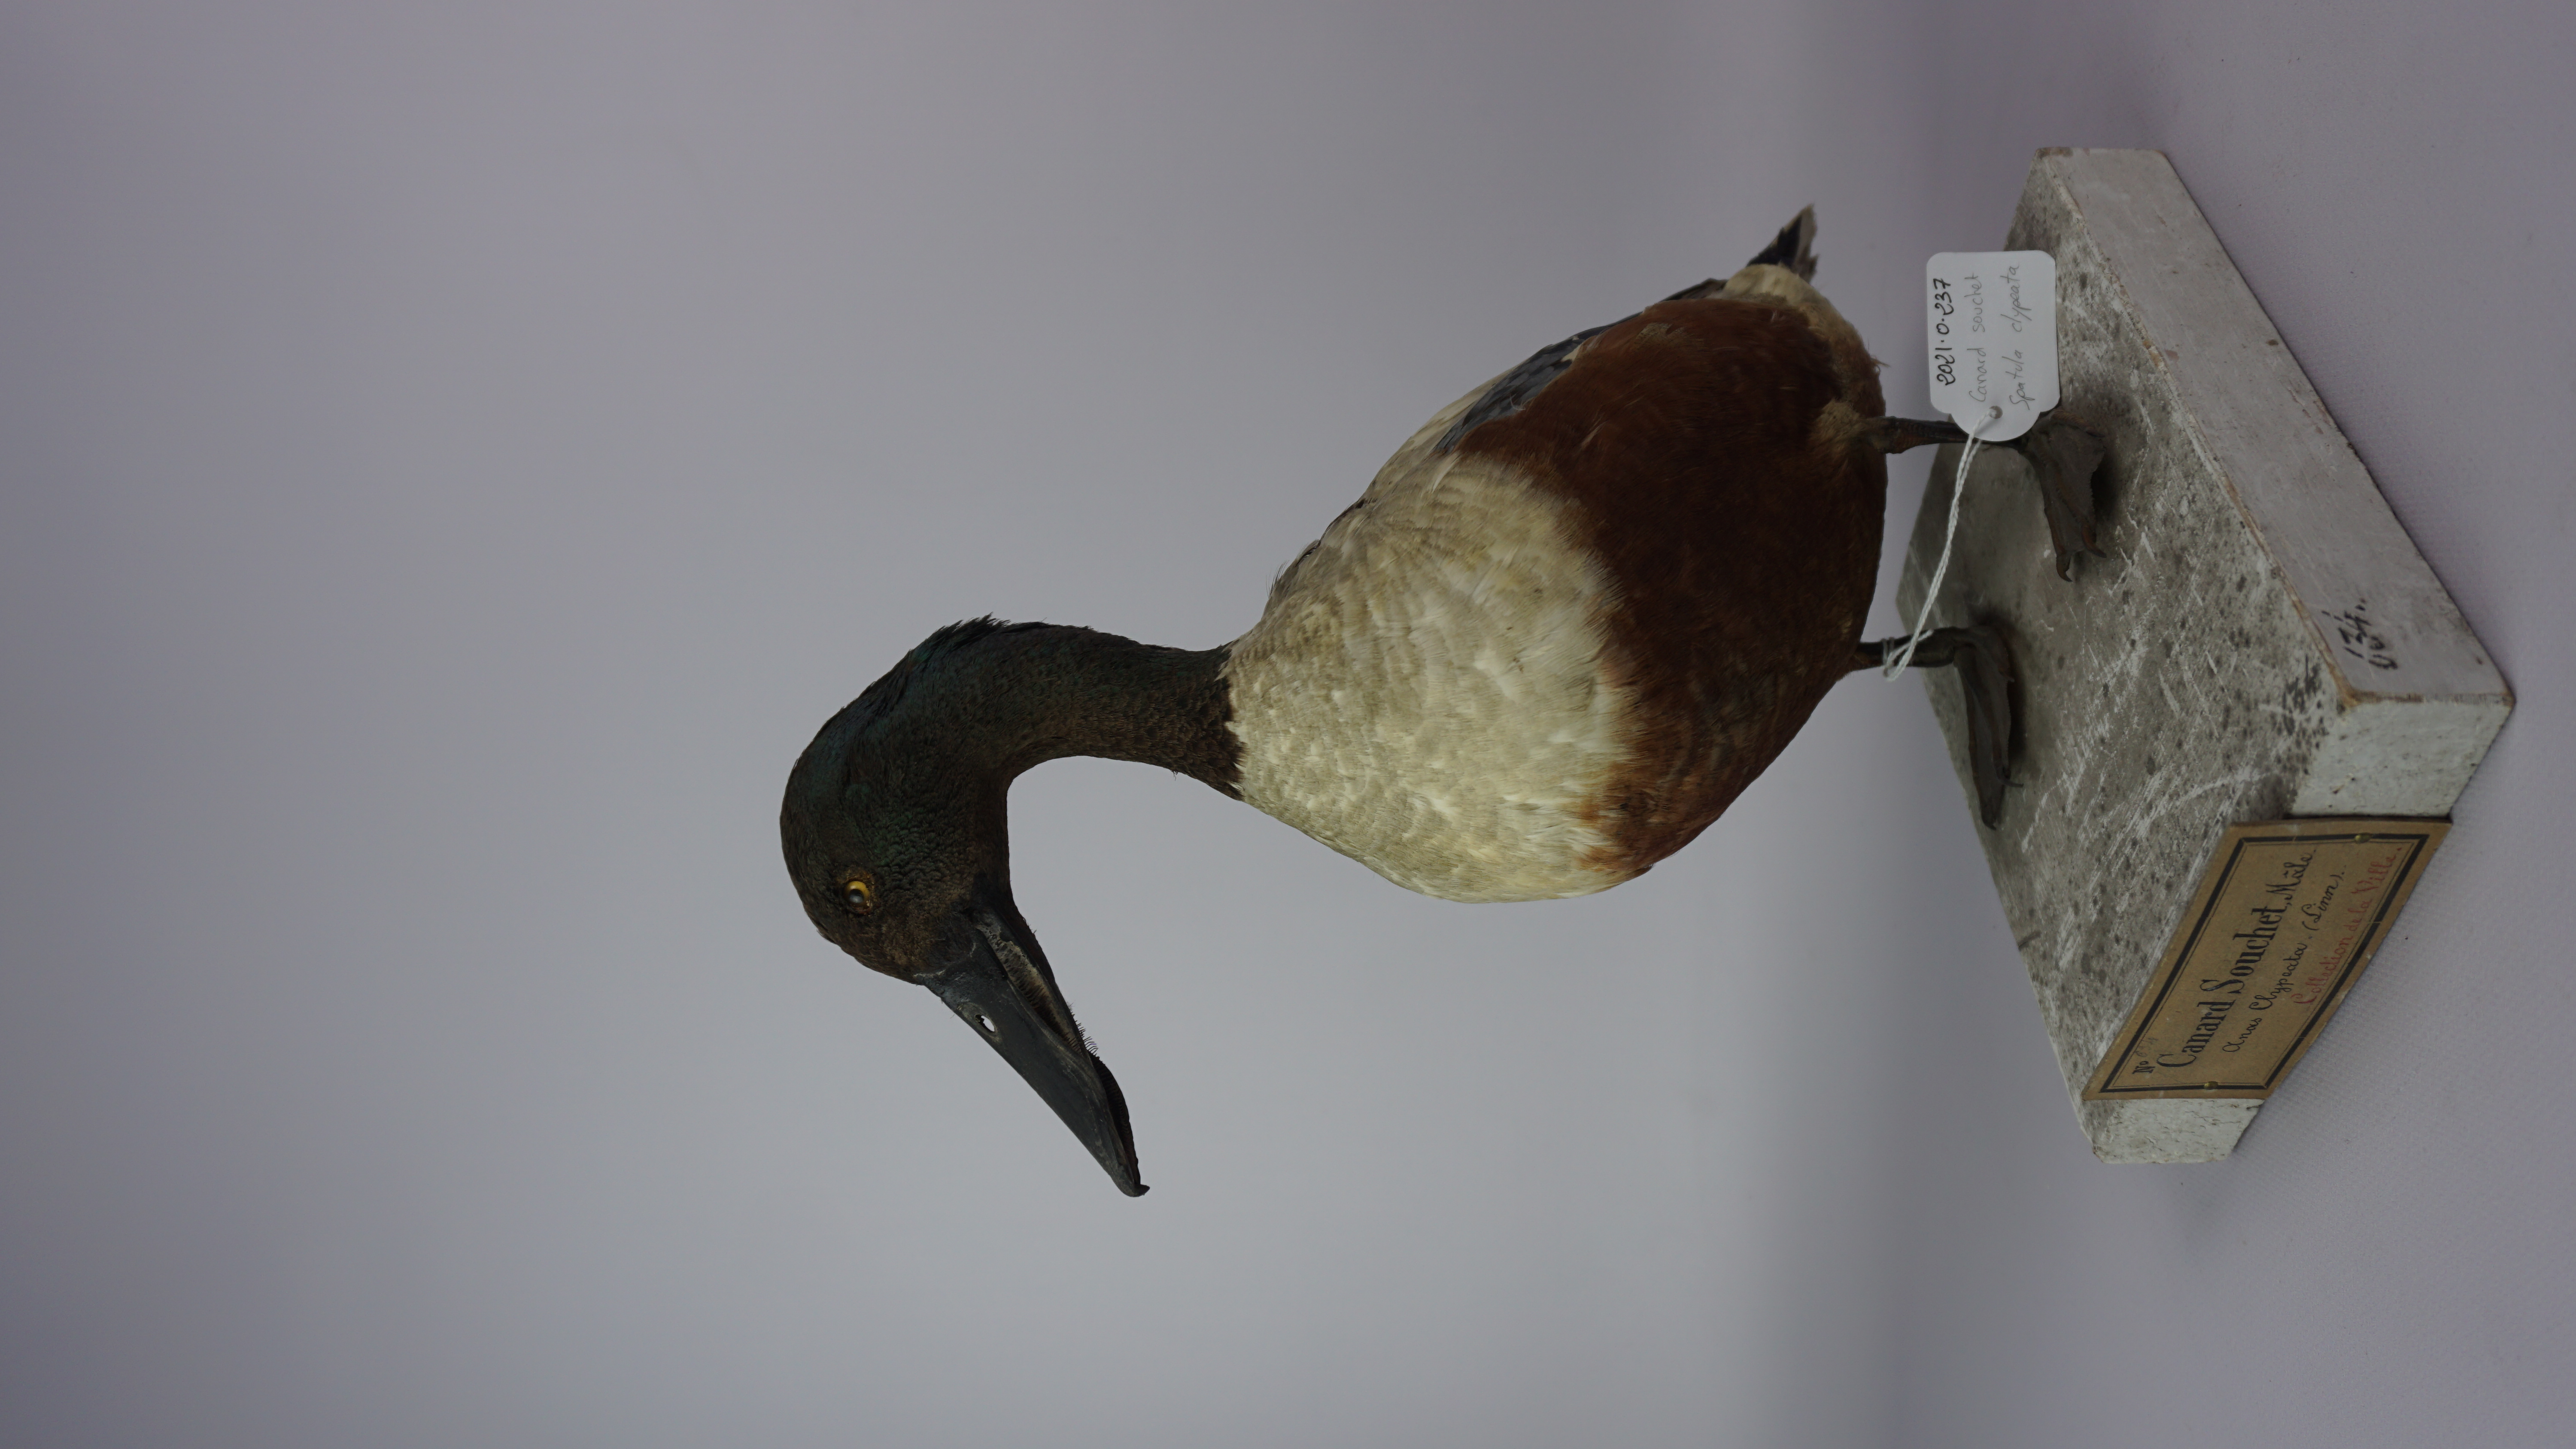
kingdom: Animalia
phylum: Chordata
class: Aves
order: Anseriformes
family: Anatidae
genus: Spatula
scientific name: Spatula clypeata
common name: Northern shoveler
